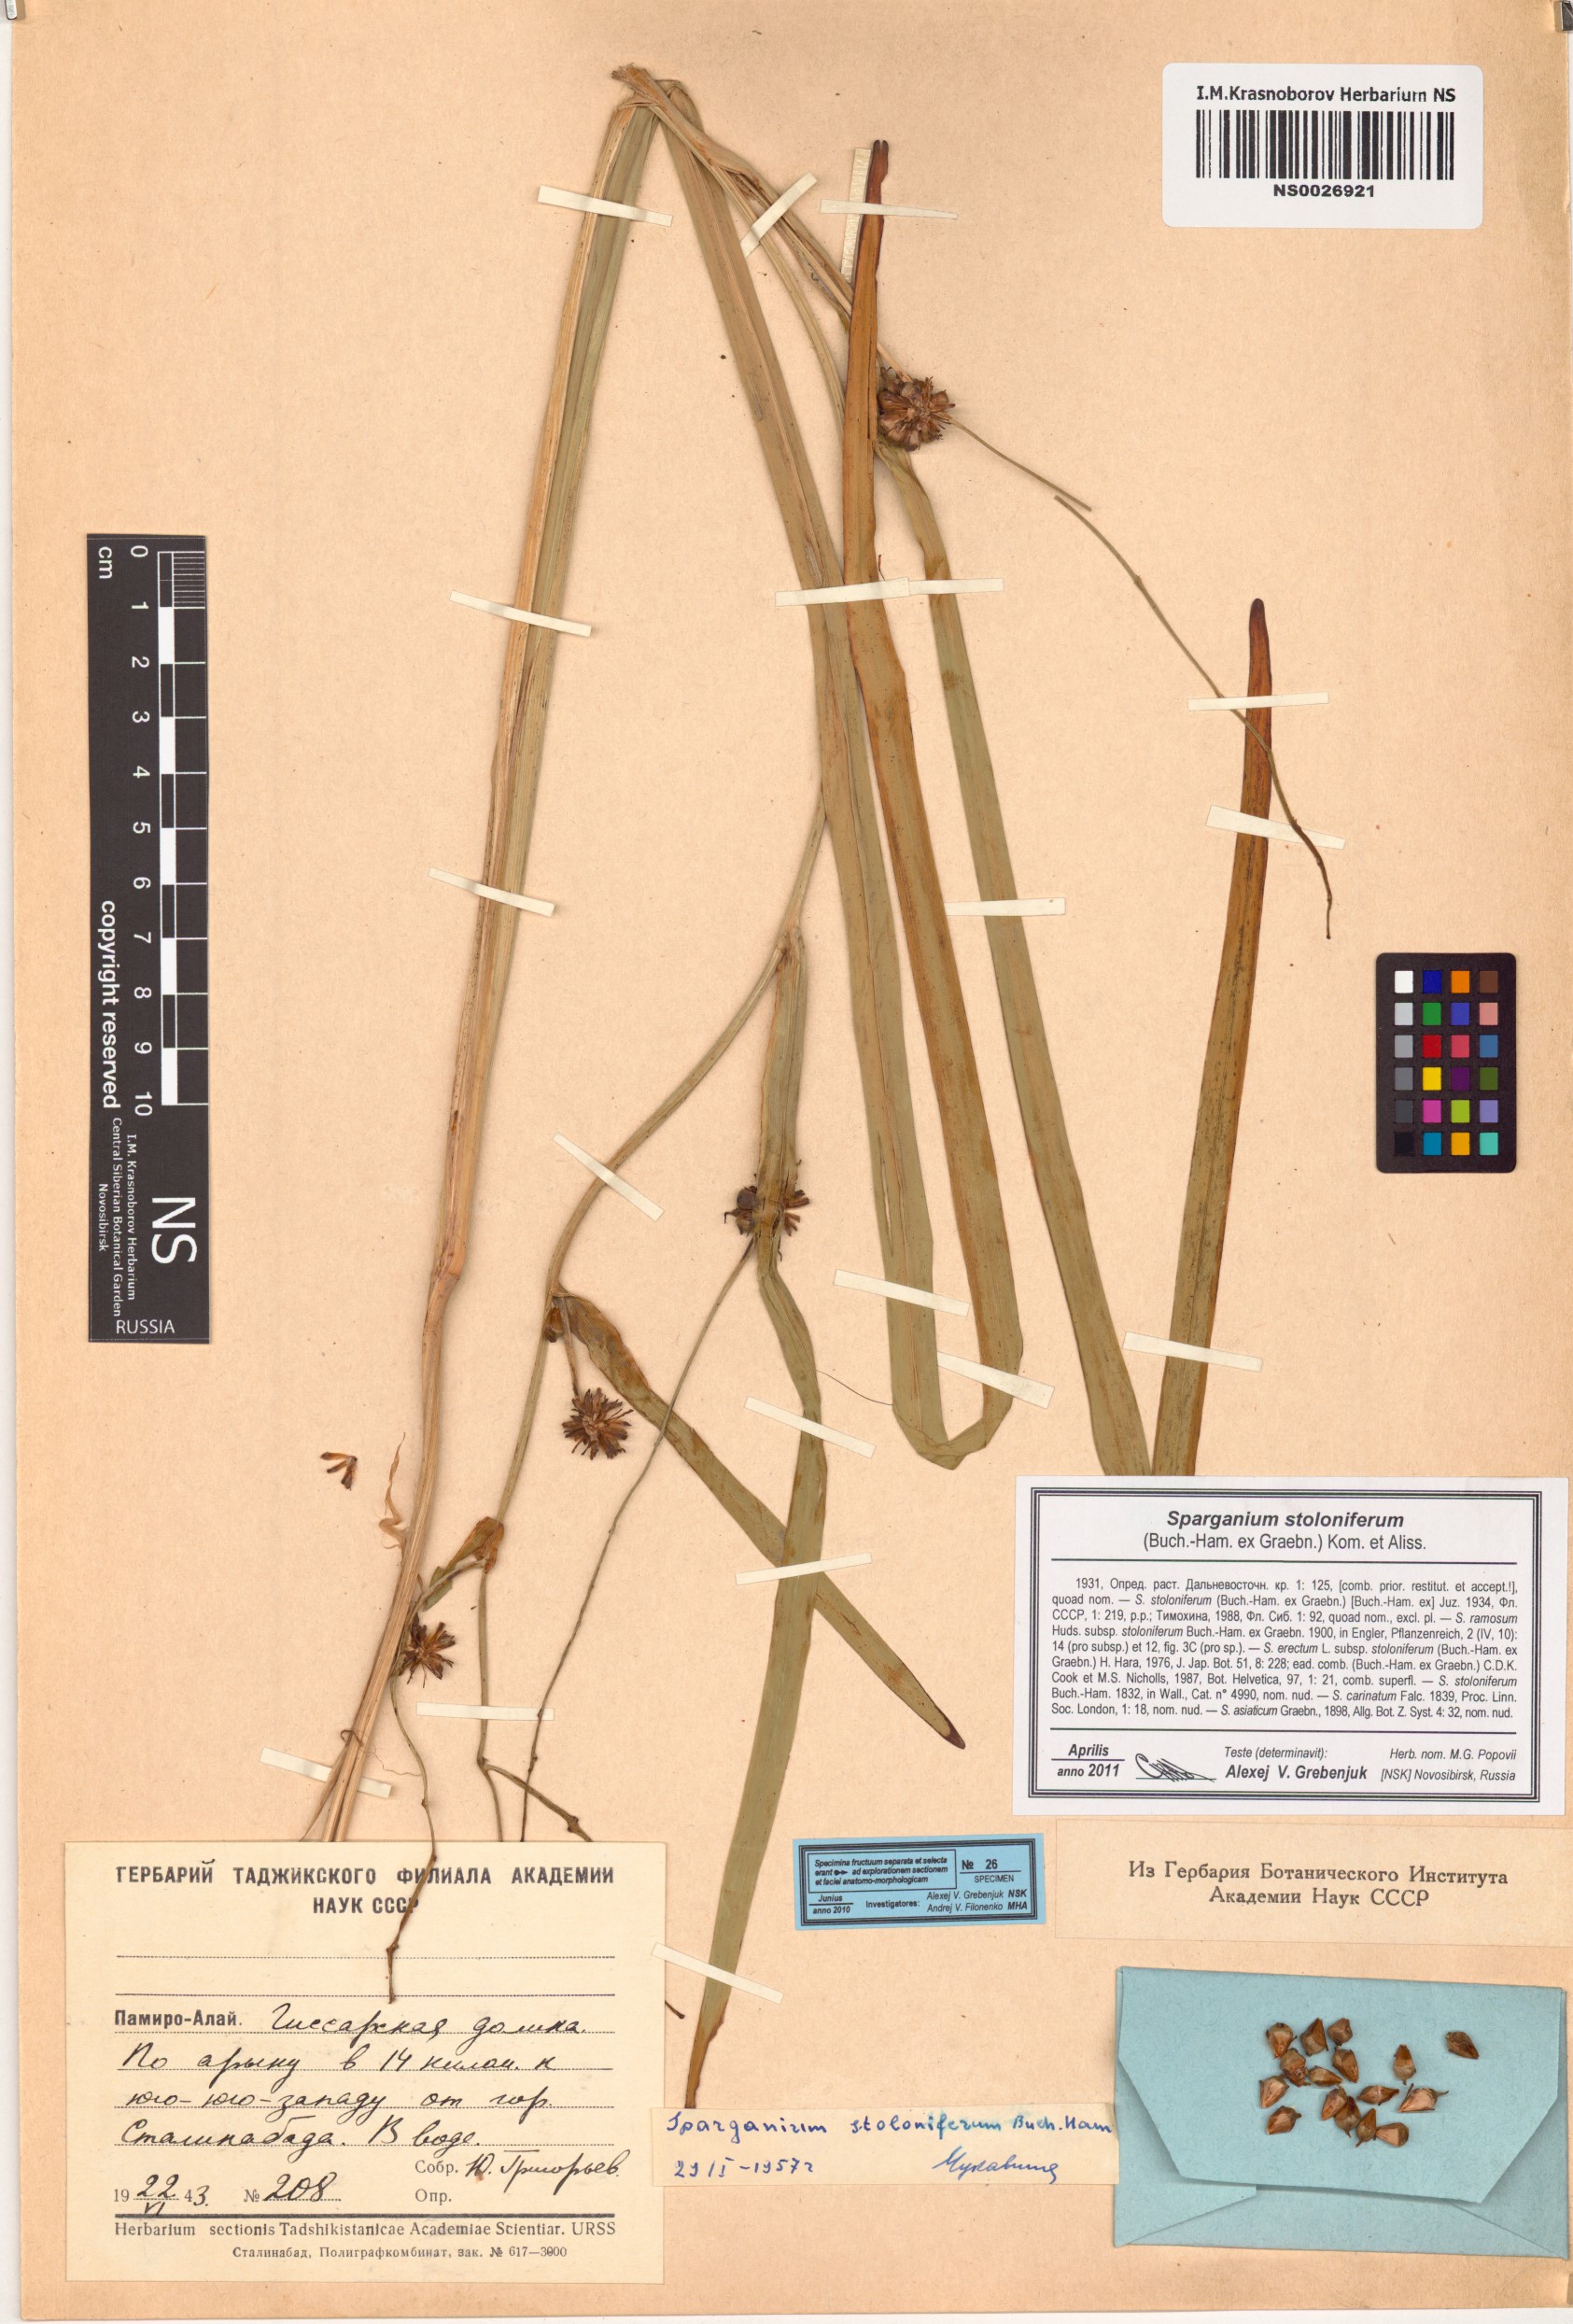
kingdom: Plantae
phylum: Tracheophyta
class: Liliopsida
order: Poales
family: Typhaceae
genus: Sparganium
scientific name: Sparganium stoloniferum
